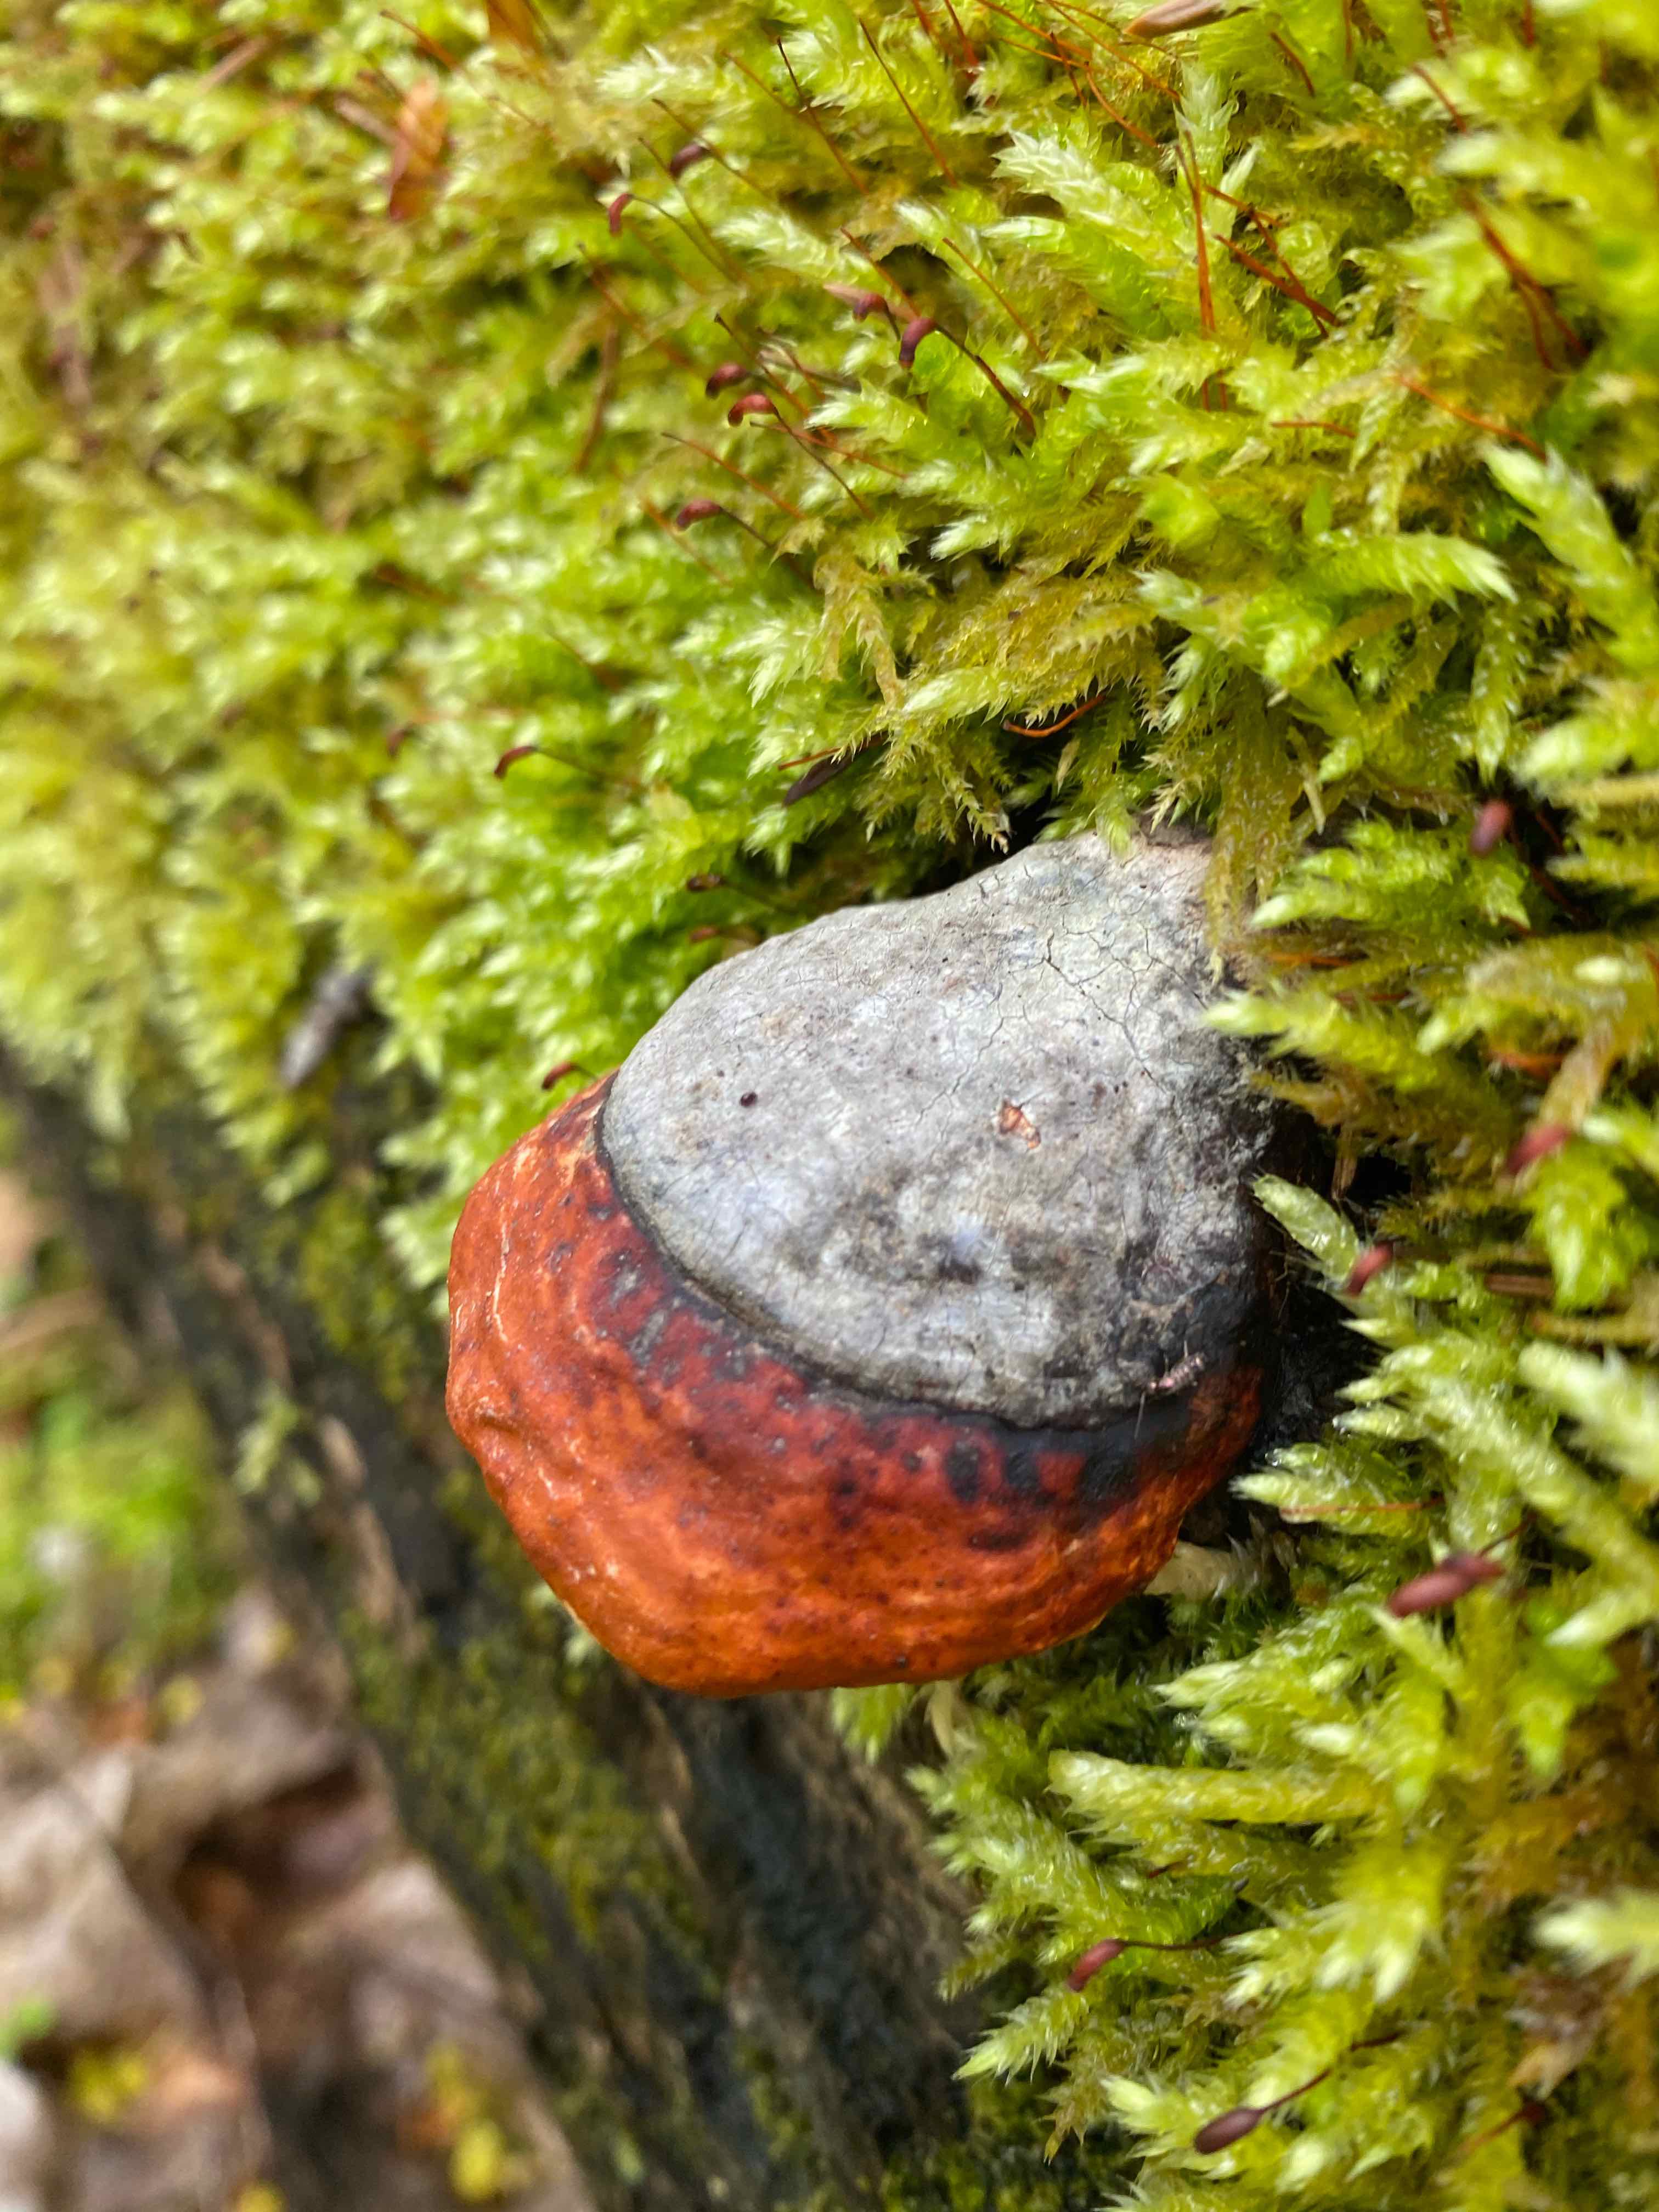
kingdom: Fungi
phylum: Basidiomycota
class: Agaricomycetes
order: Polyporales
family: Fomitopsidaceae
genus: Fomitopsis
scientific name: Fomitopsis pinicola
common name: randbæltet hovporesvamp
